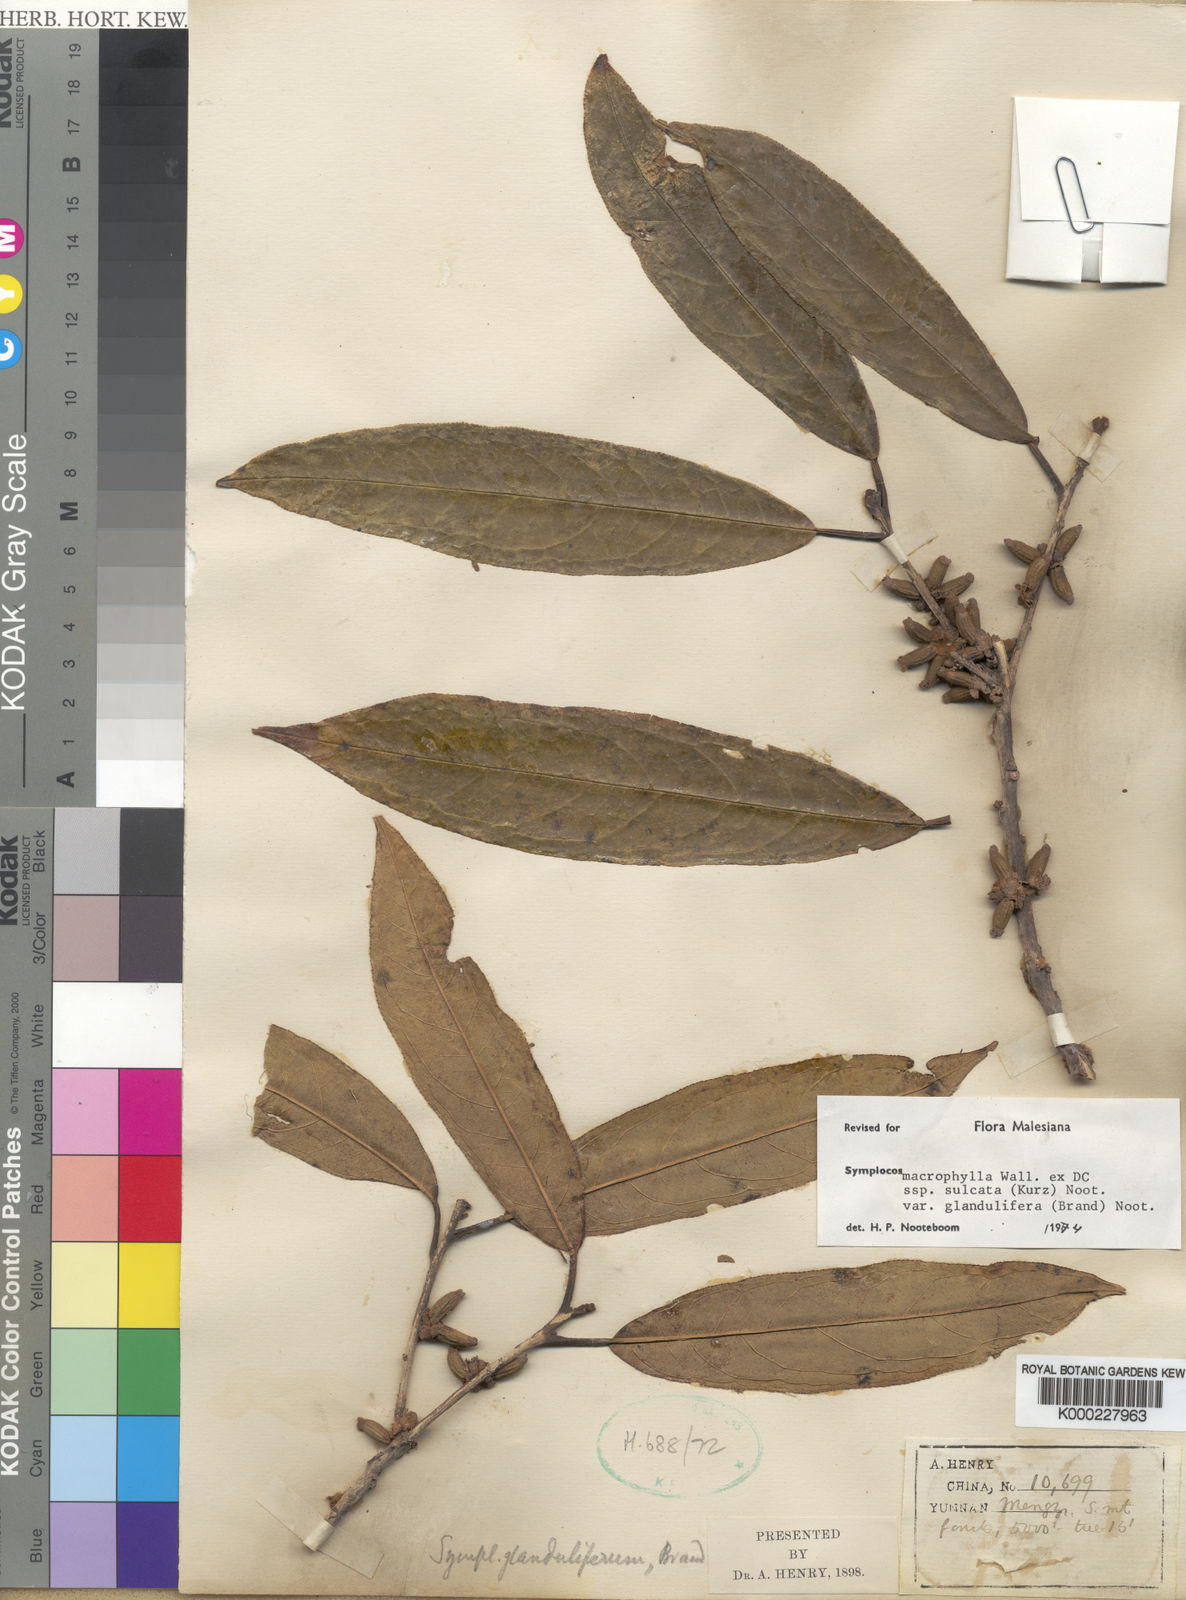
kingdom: Plantae
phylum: Tracheophyta
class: Magnoliopsida
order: Ericales
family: Symplocaceae
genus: Symplocos
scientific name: Symplocos glandulifera
